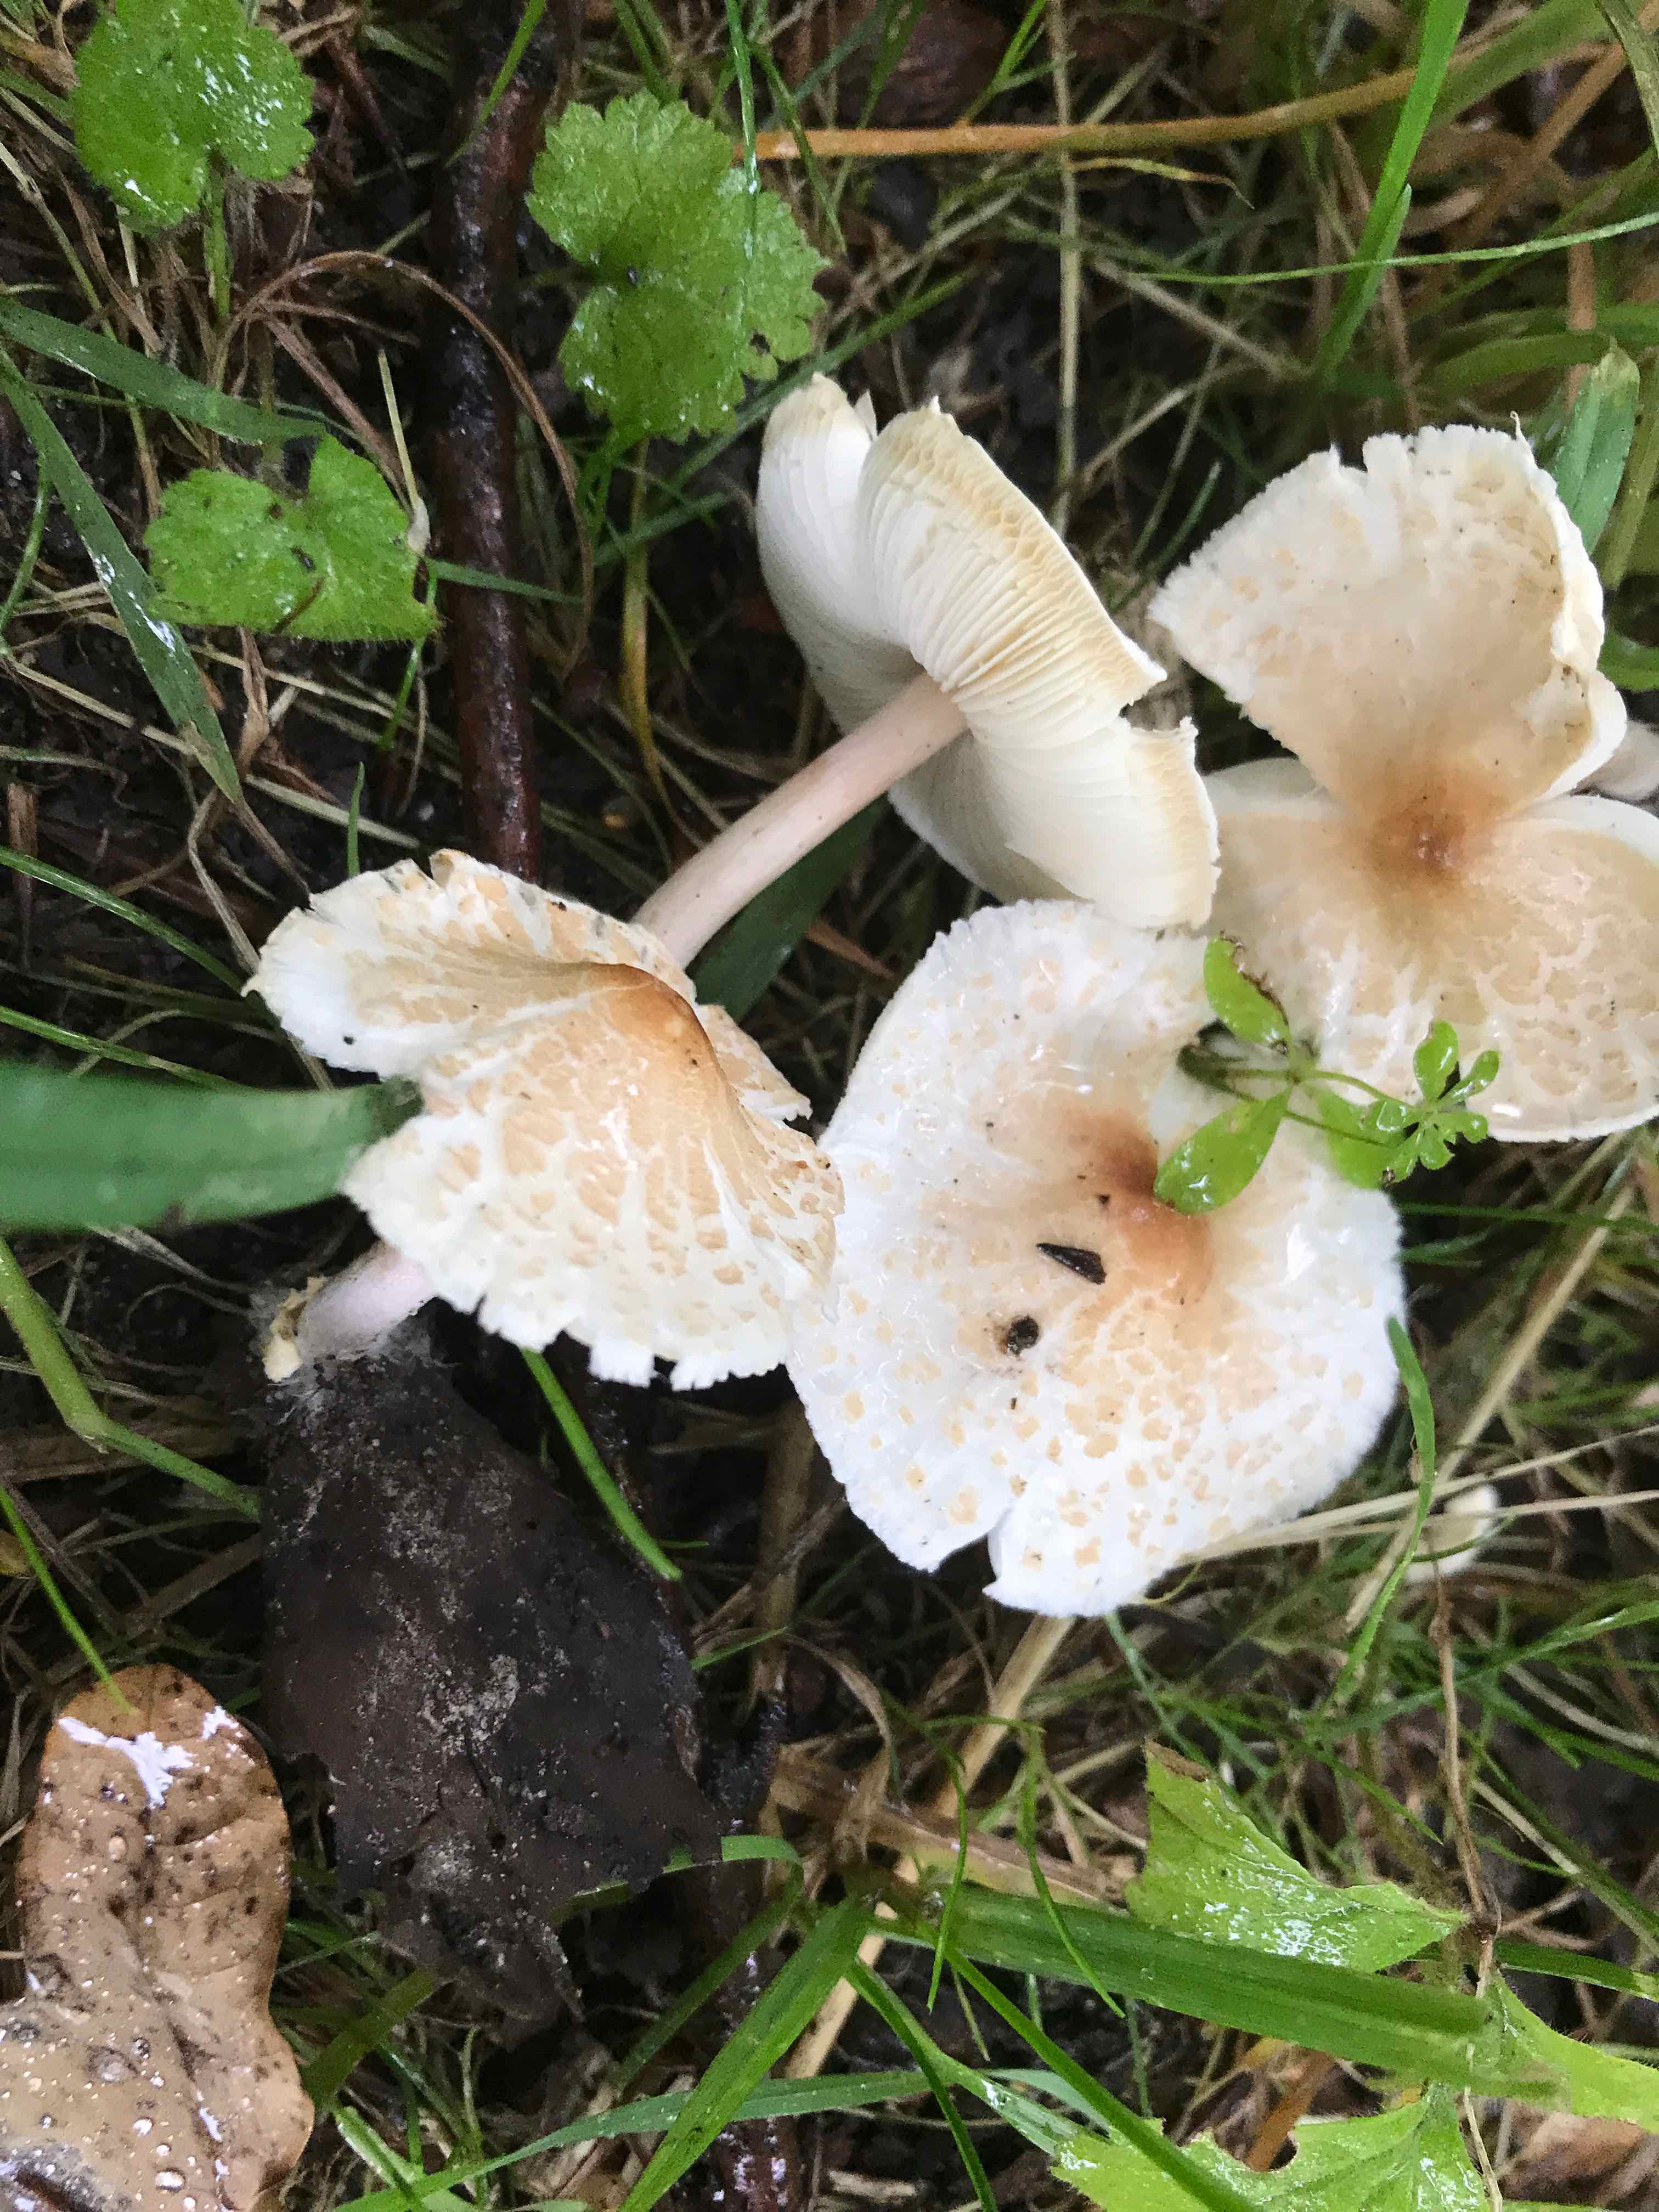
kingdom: Fungi
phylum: Basidiomycota
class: Agaricomycetes
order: Agaricales
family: Agaricaceae
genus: Lepiota
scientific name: Lepiota cristata
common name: stinkende parasolhat
